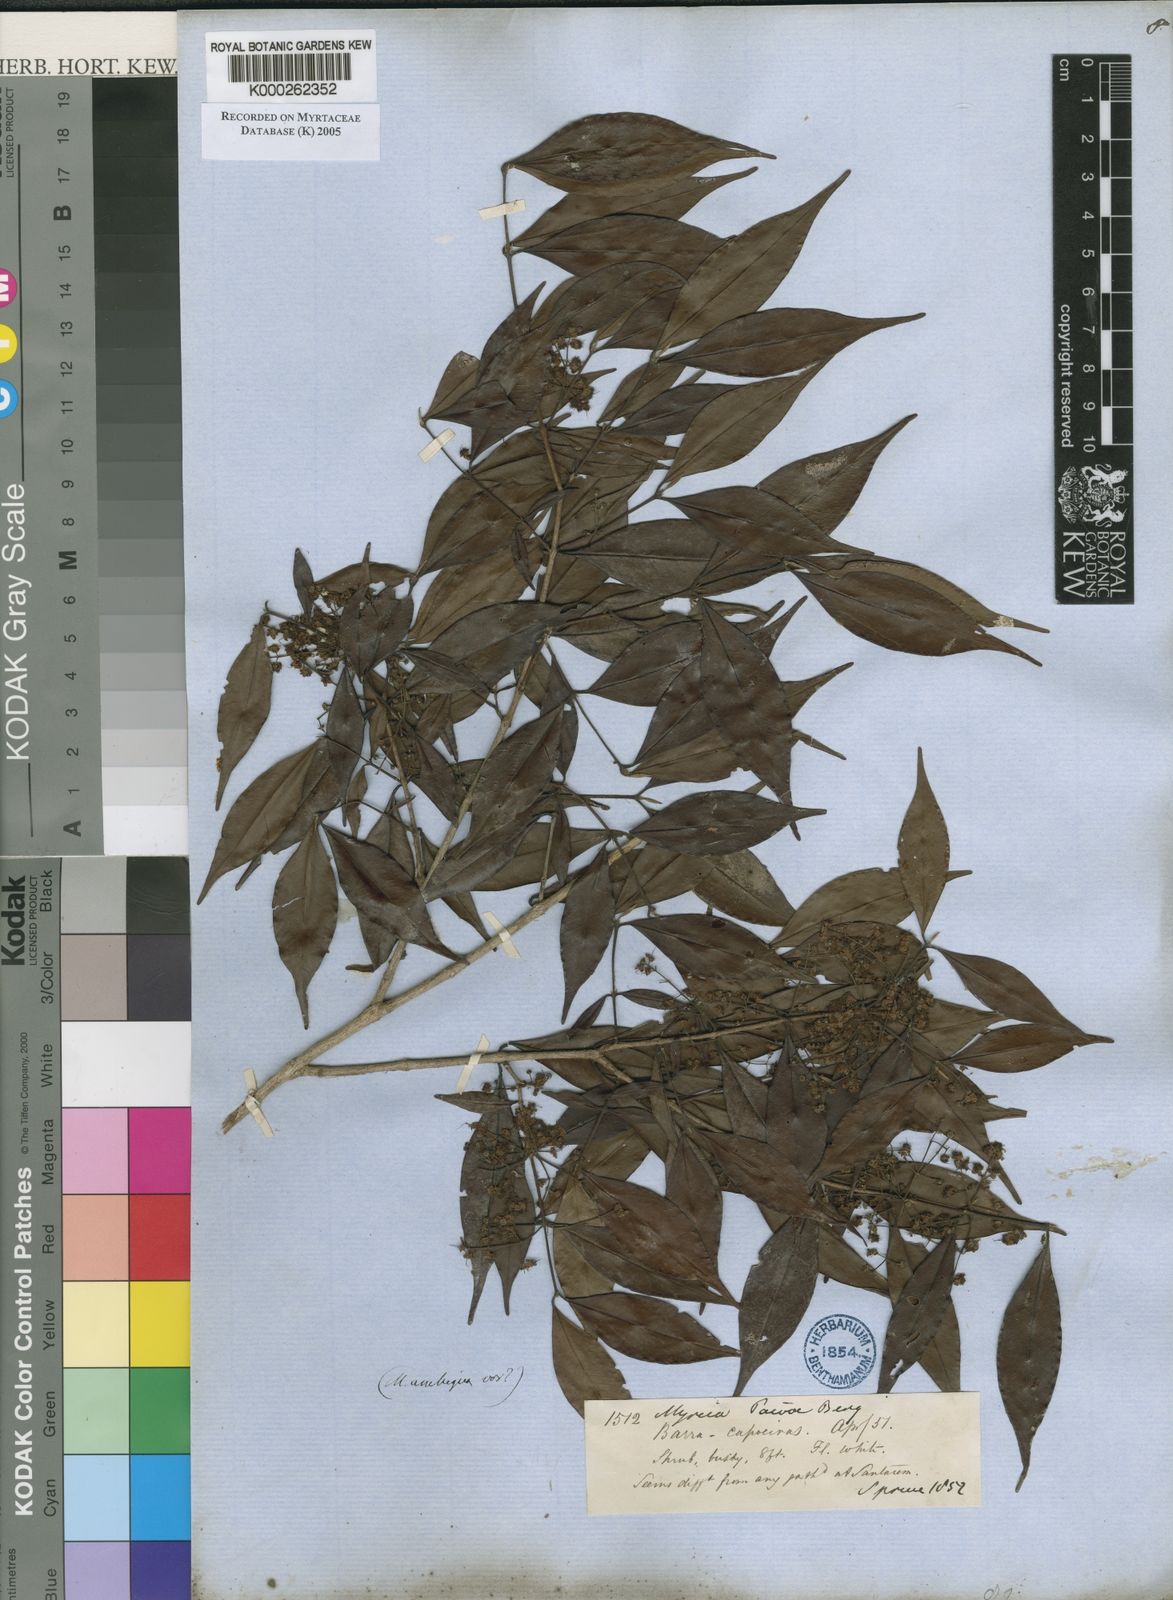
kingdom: Plantae
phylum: Tracheophyta
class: Magnoliopsida
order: Myrtales
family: Myrtaceae
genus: Myrcia
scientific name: Myrcia paivae
